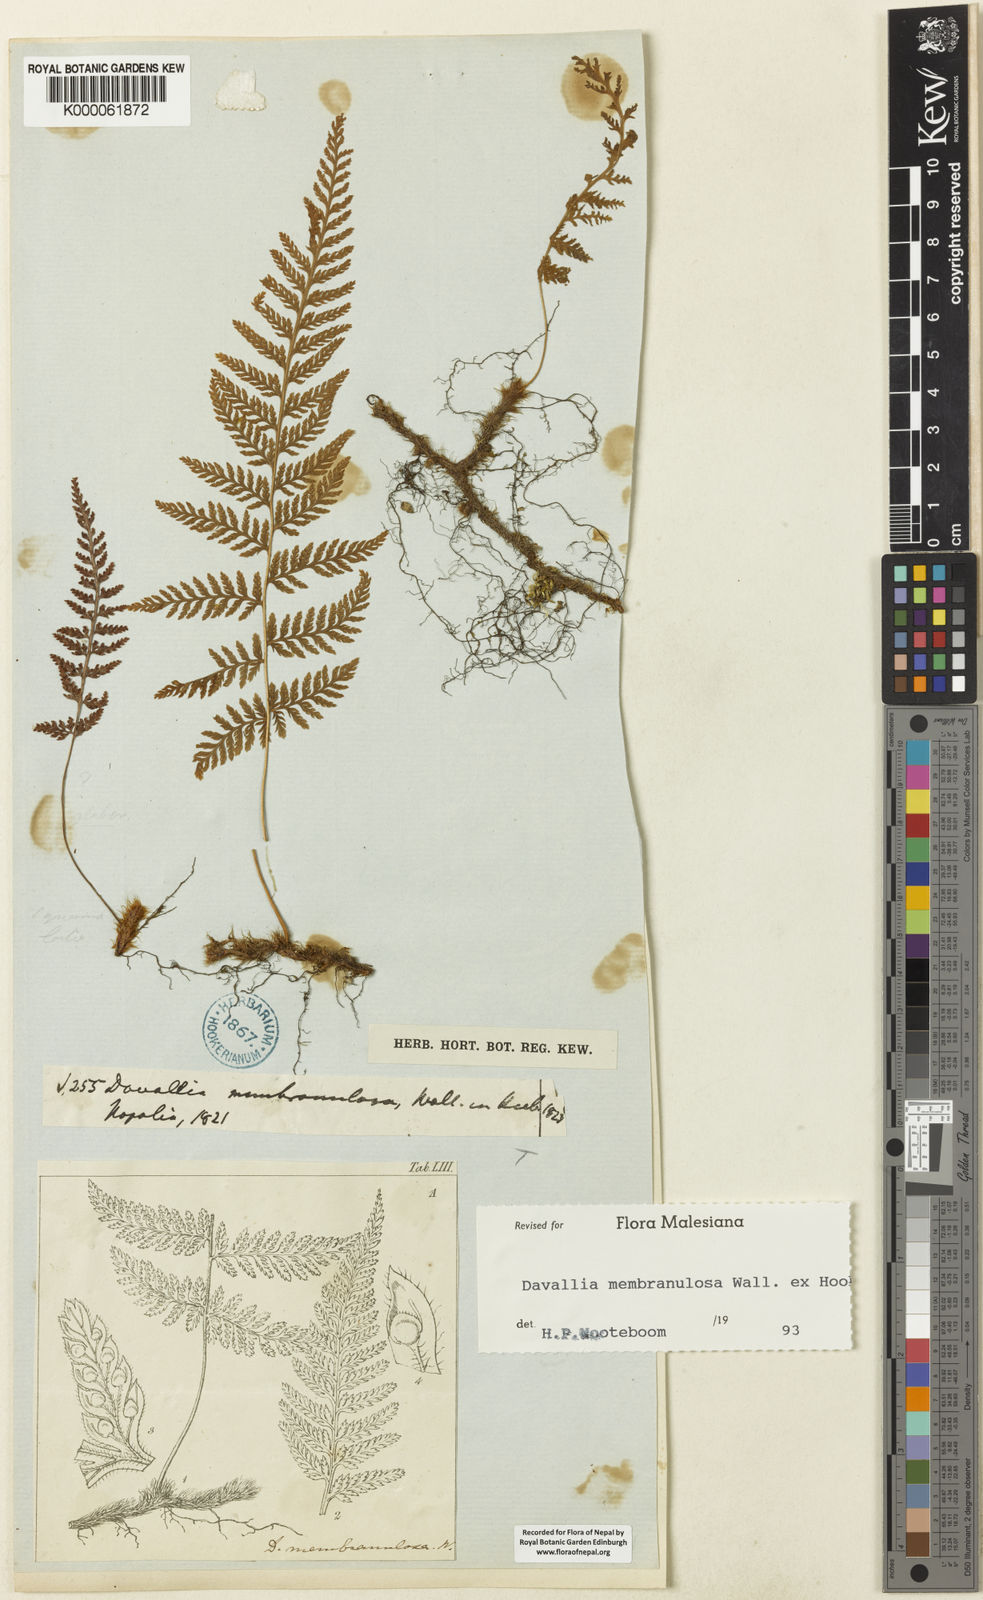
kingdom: Plantae
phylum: Tracheophyta
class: Polypodiopsida
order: Polypodiales
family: Davalliaceae
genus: Davallodes
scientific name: Davallodes
